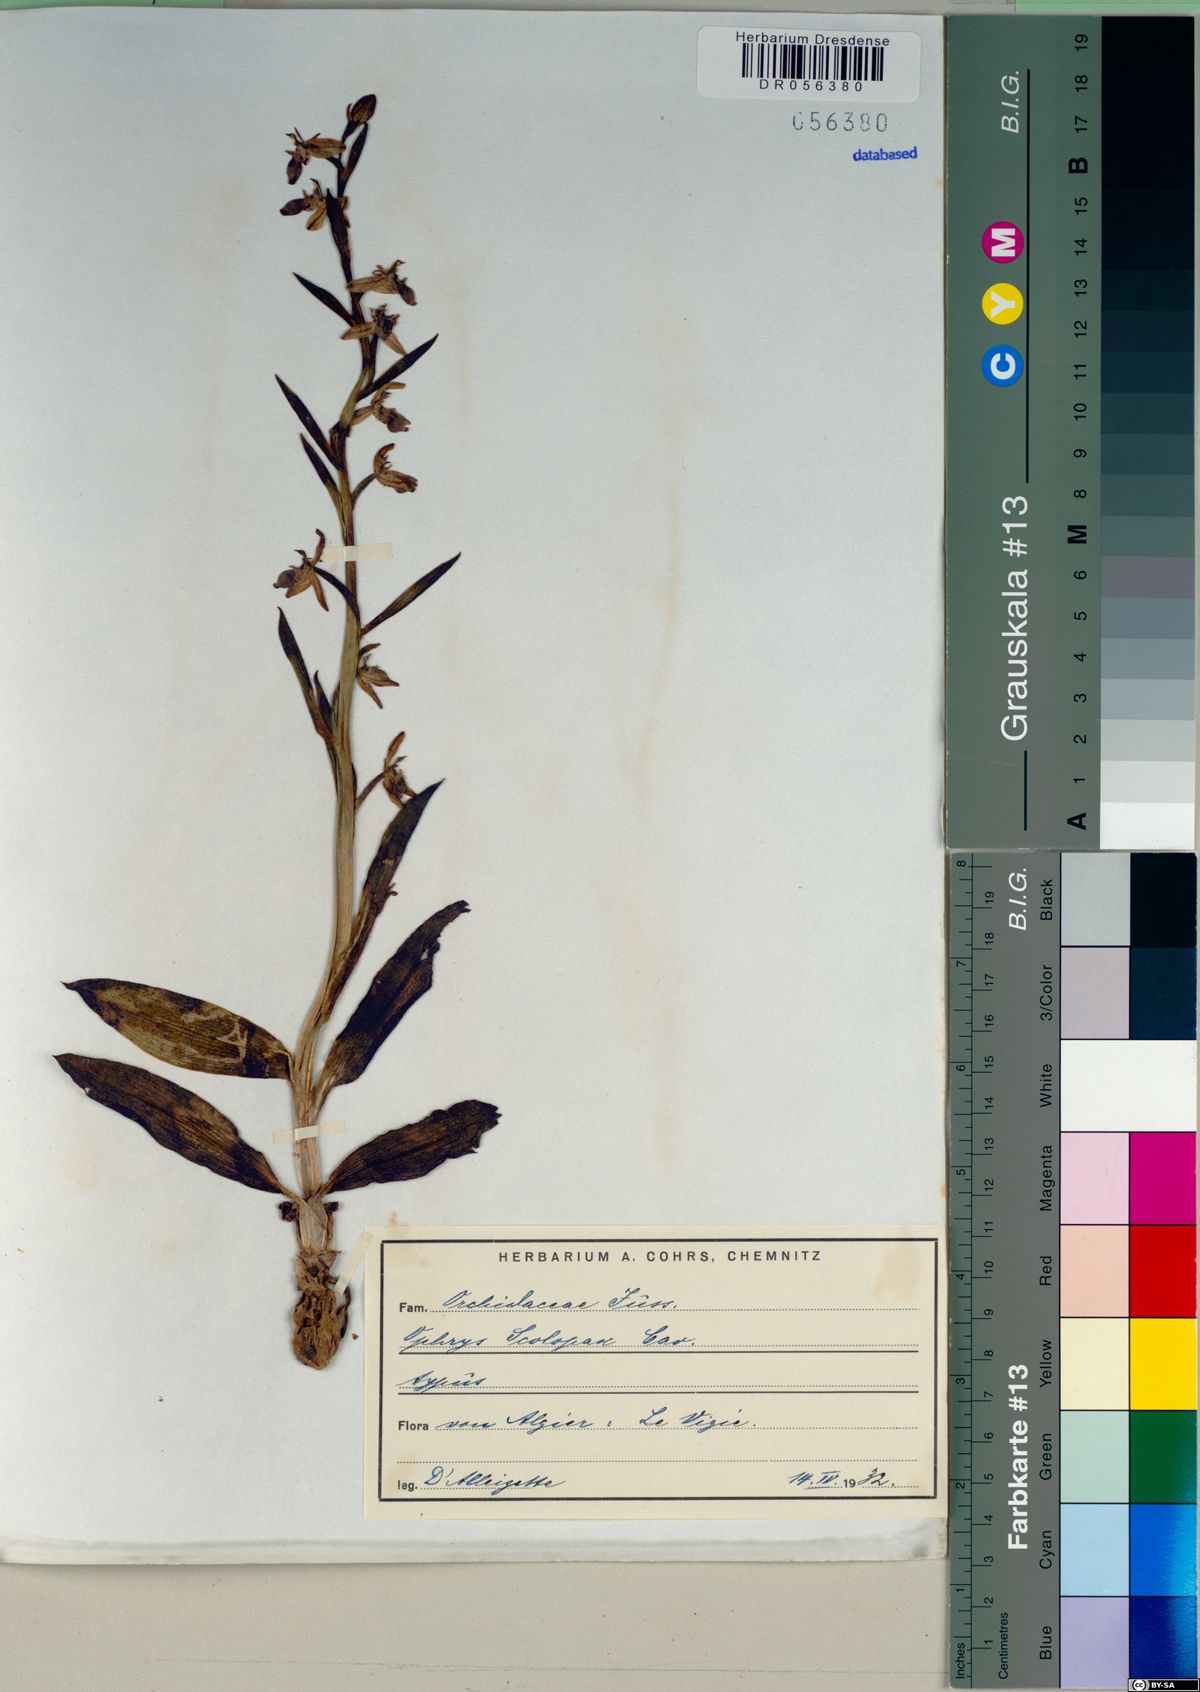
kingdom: Plantae
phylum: Tracheophyta
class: Liliopsida
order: Asparagales
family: Orchidaceae
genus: Ophrys
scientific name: Ophrys scolopax
